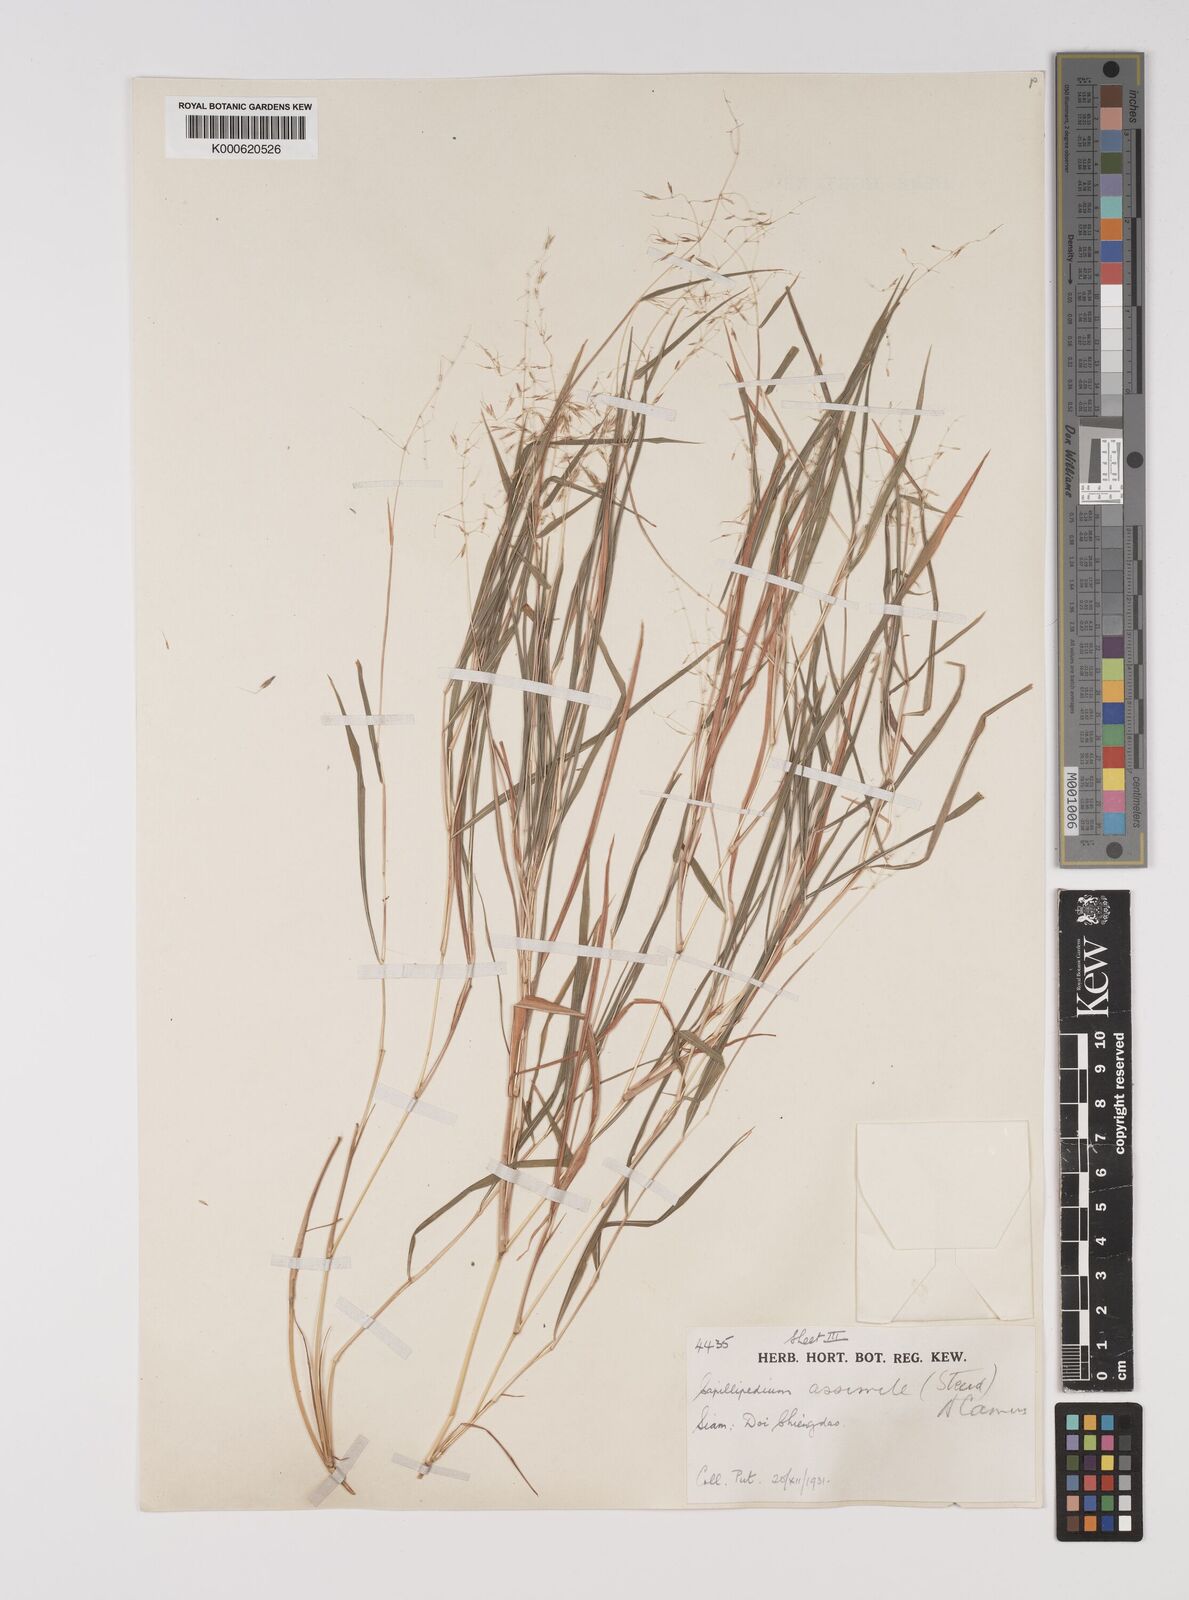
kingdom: Plantae
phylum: Tracheophyta
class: Liliopsida
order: Poales
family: Poaceae
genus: Capillipedium
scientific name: Capillipedium assimile
